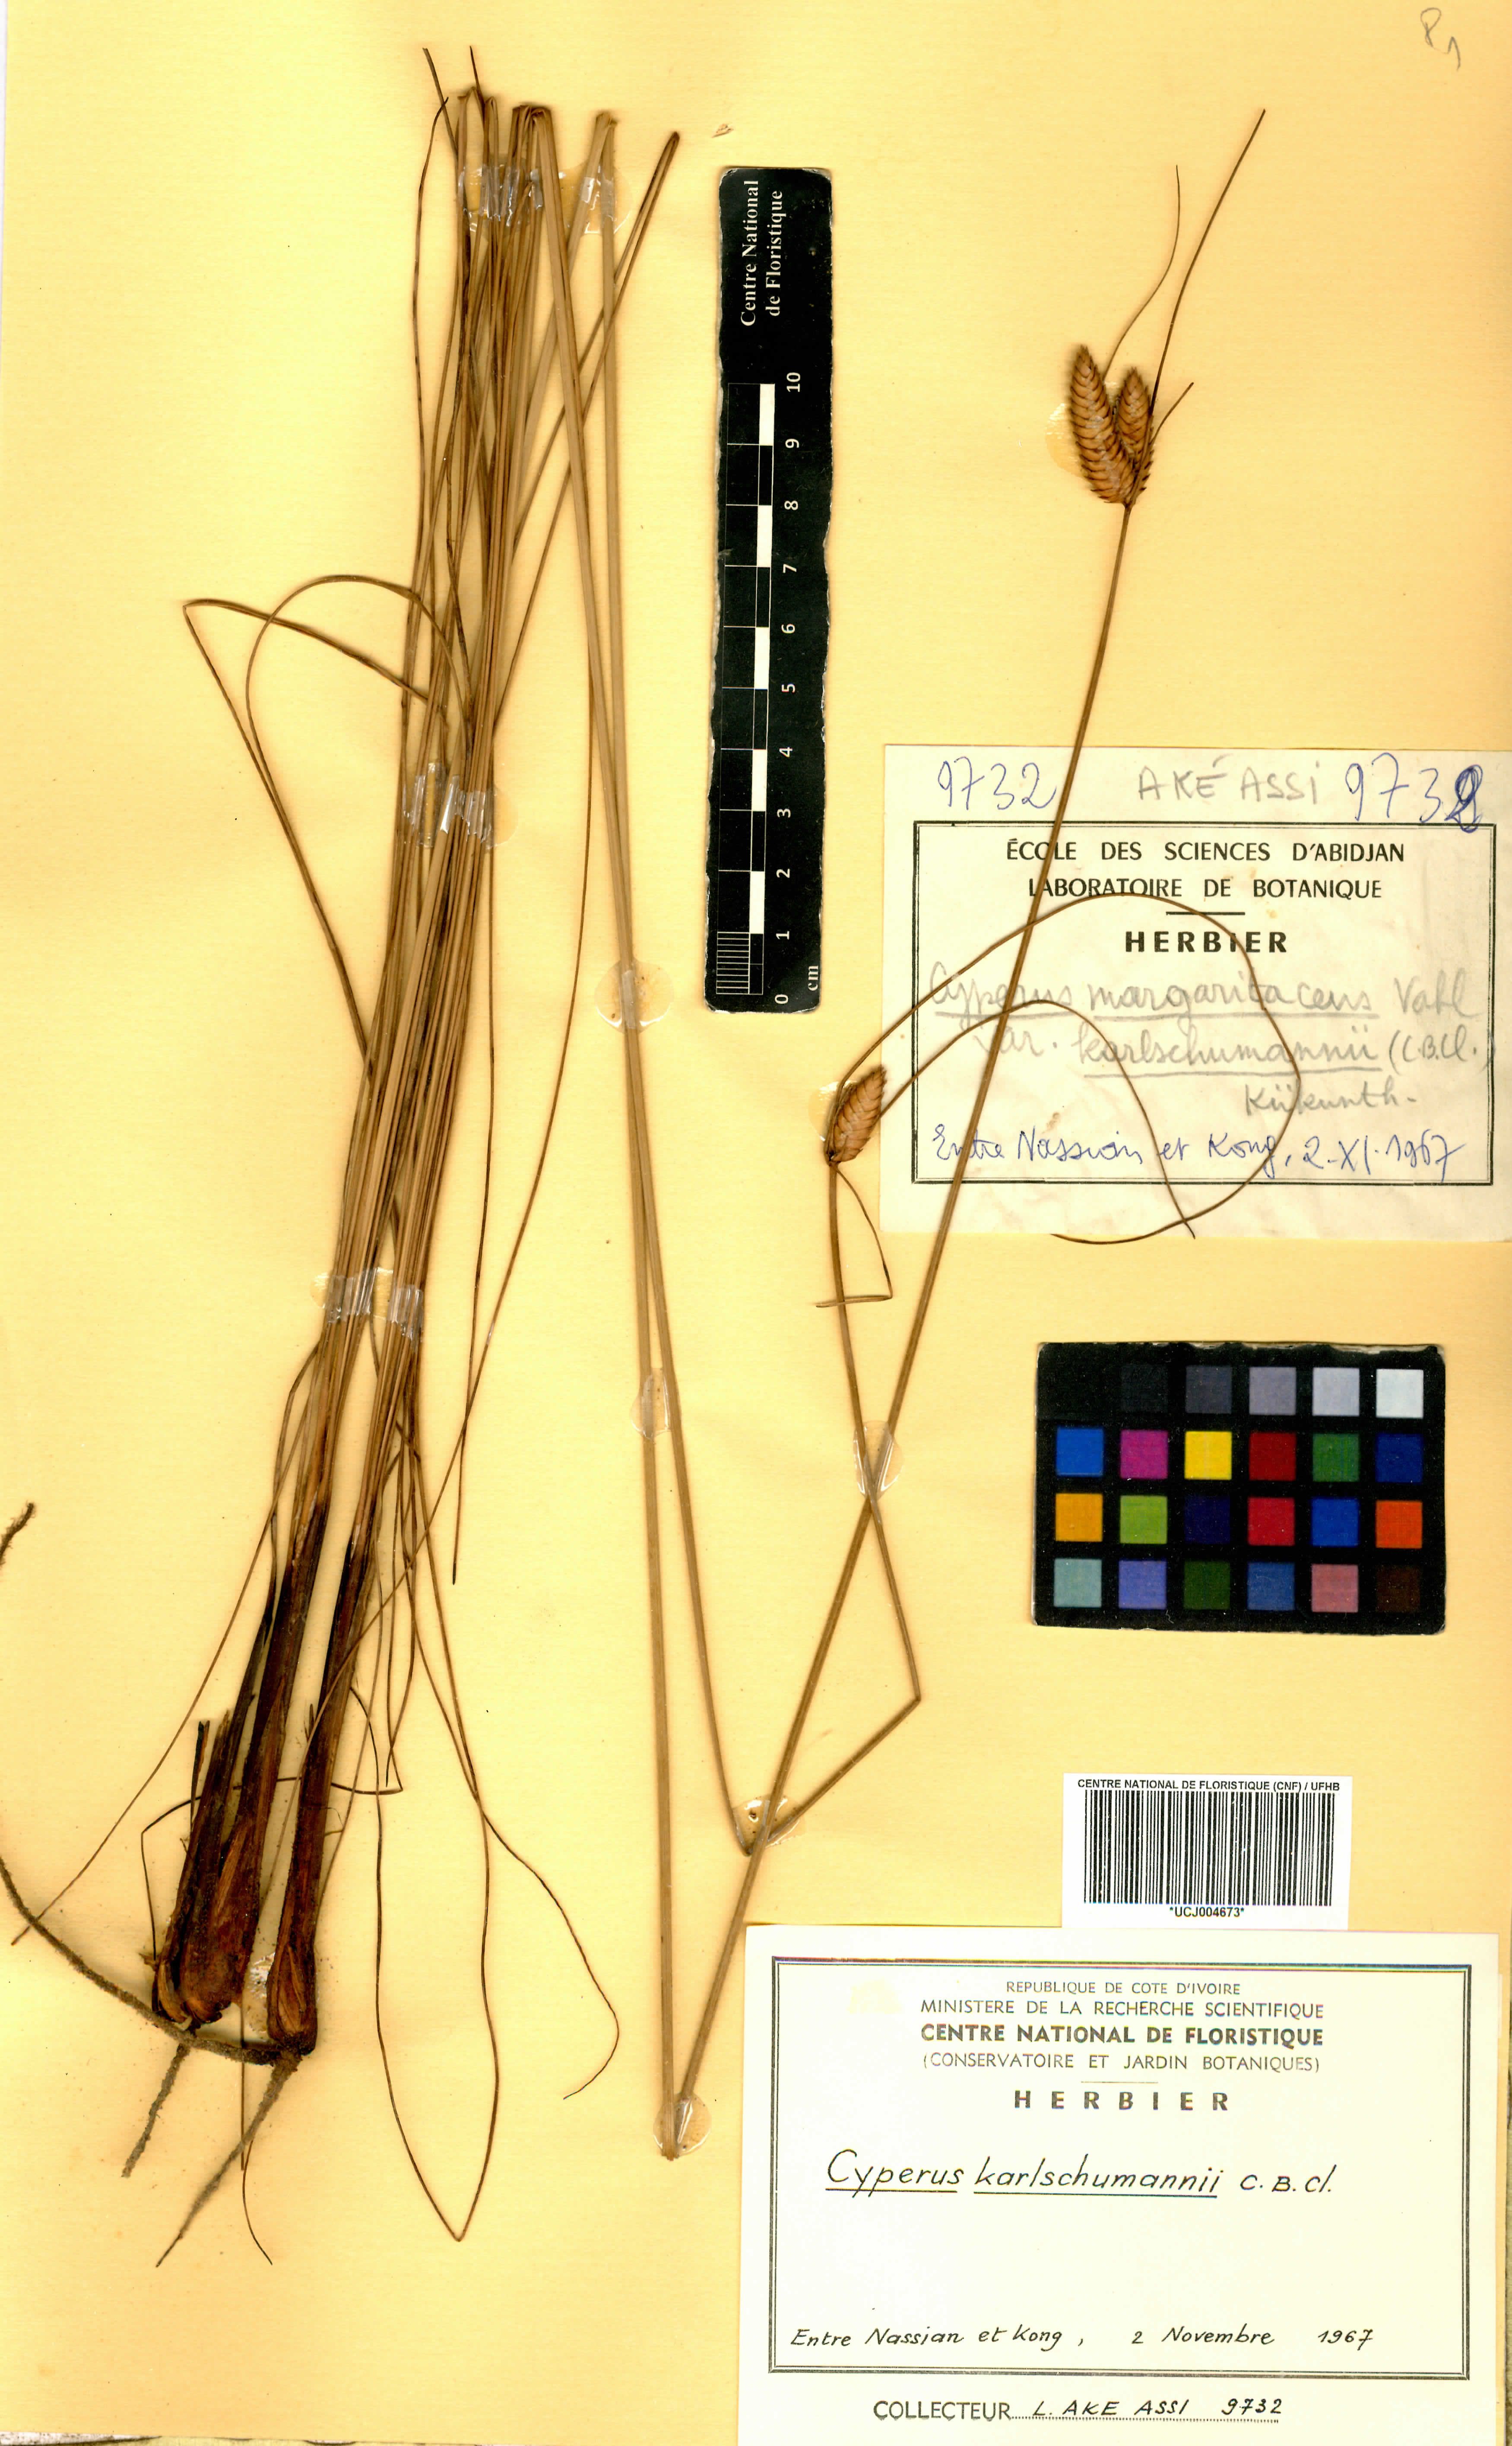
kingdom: Plantae
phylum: Tracheophyta
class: Liliopsida
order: Poales
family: Cyperaceae
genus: Cyperus
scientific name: Cyperus karlschumannii
